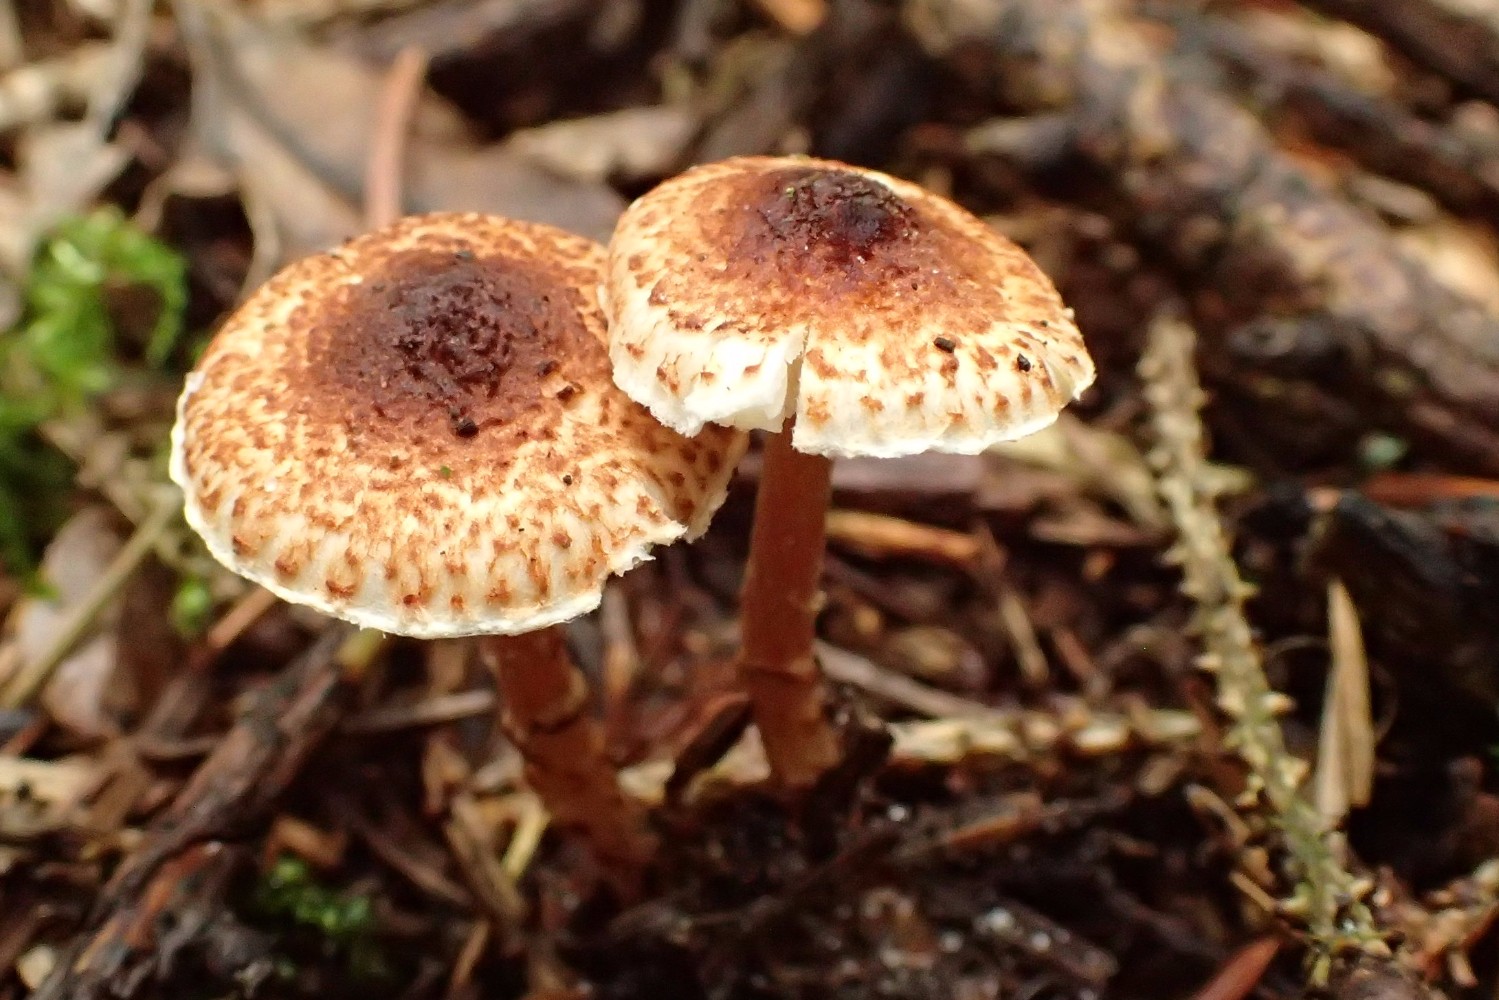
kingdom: Fungi
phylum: Basidiomycota
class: Agaricomycetes
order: Agaricales
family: Agaricaceae
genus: Lepiota
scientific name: Lepiota castanea
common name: kastaniebrun parasolhat
